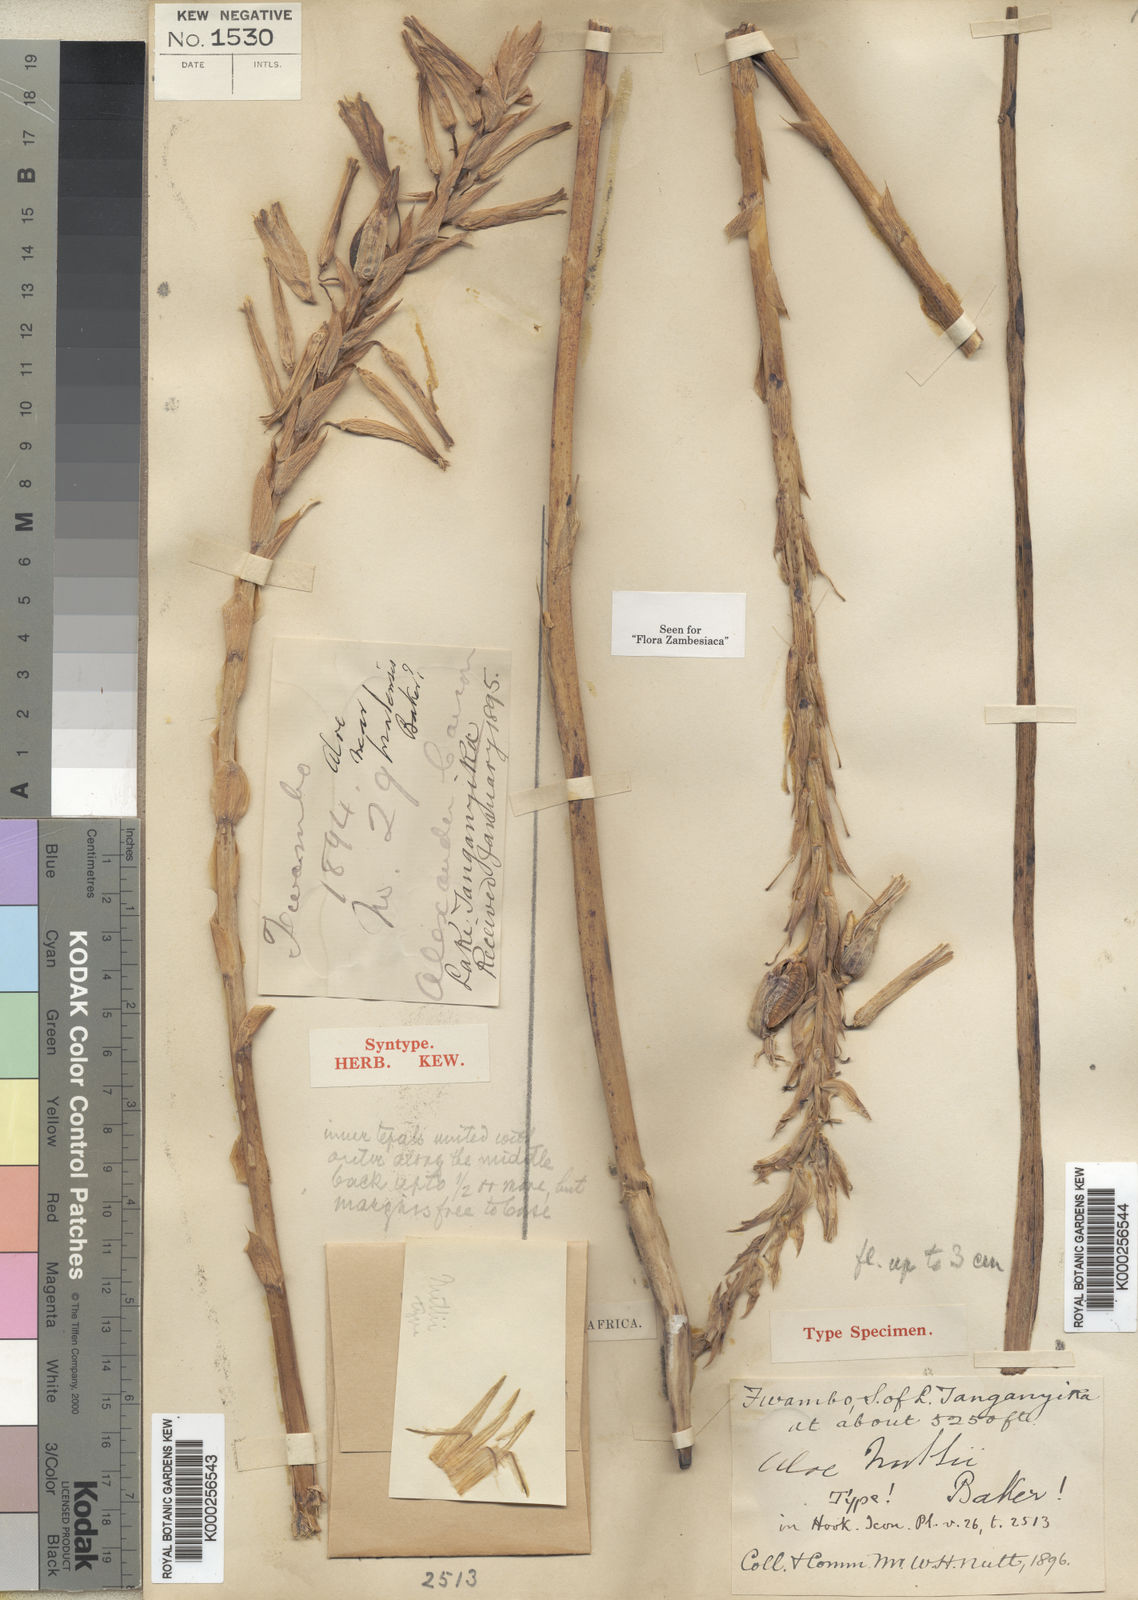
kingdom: Plantae
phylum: Tracheophyta
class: Liliopsida
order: Asparagales
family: Asphodelaceae
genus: Aloe
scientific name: Aloe nuttii
